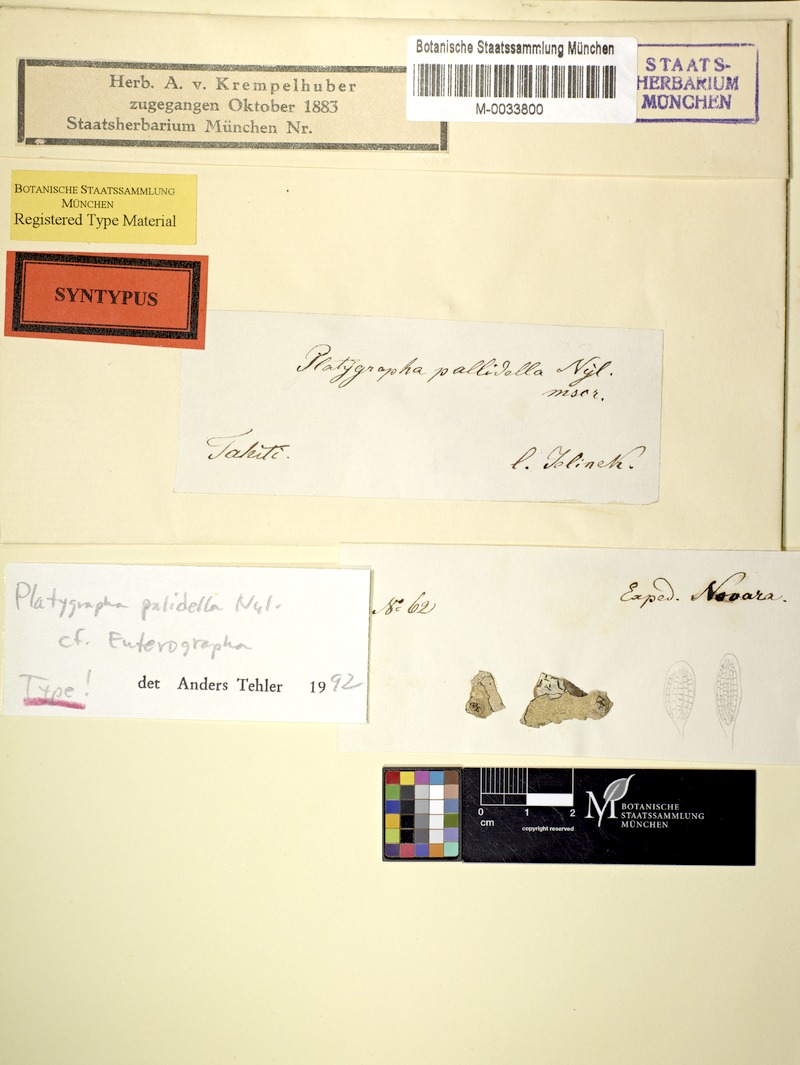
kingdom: Fungi
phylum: Ascomycota
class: Arthoniomycetes
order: Arthoniales
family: Roccellaceae
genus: Enterographa
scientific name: Enterographa pallidella
